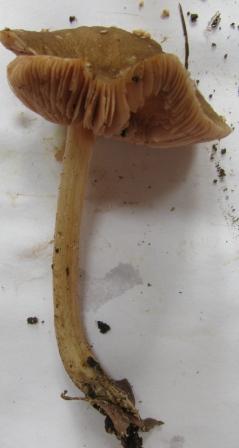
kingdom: Fungi
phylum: Basidiomycota
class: Agaricomycetes
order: Agaricales
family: Pluteaceae
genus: Pluteus
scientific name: Pluteus phlebophorus
